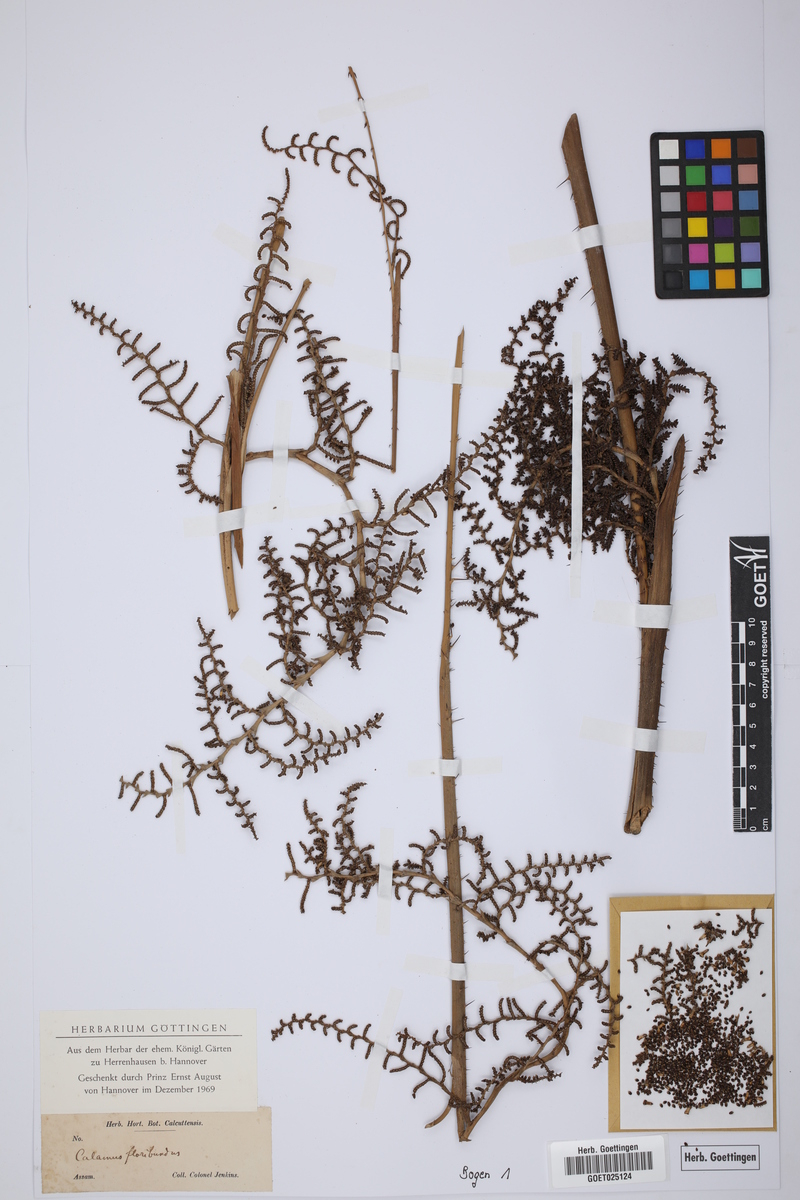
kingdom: Plantae
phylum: Tracheophyta
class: Liliopsida
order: Arecales
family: Arecaceae
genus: Calamus
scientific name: Calamus floribundus
